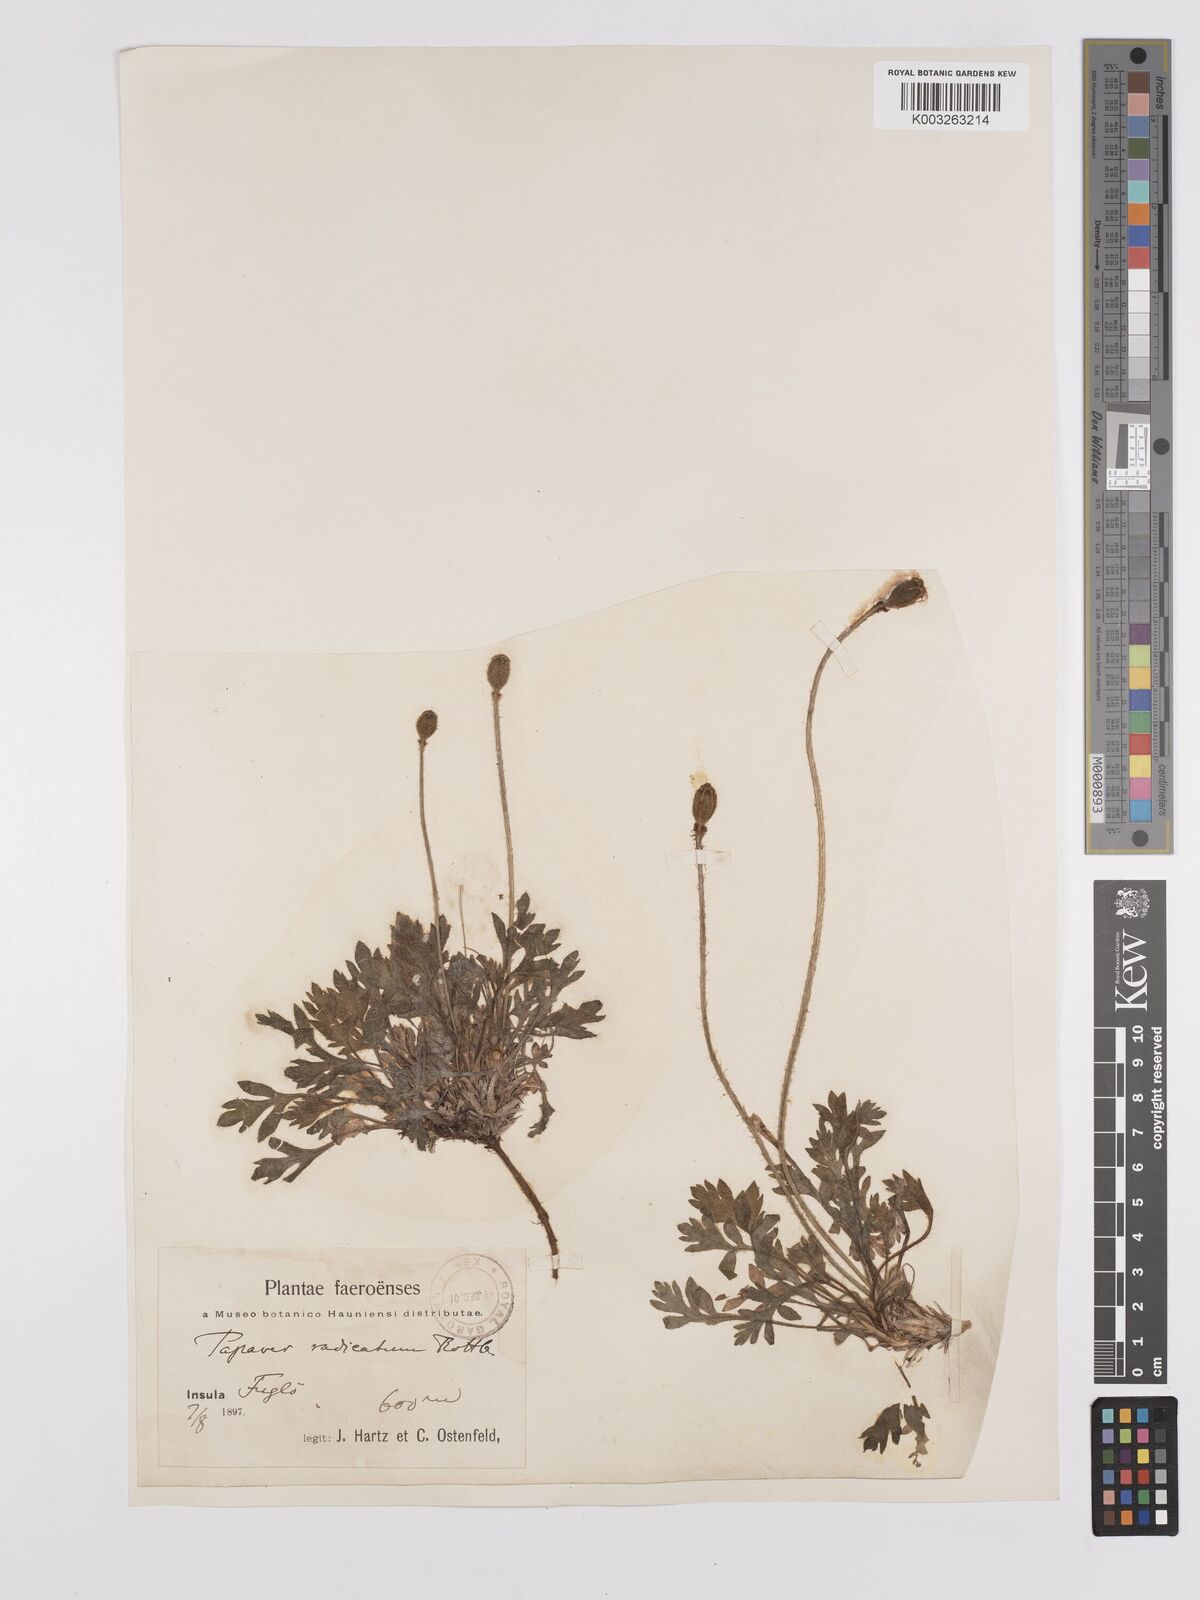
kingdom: Plantae
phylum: Tracheophyta
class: Magnoliopsida
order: Ranunculales
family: Papaveraceae
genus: Papaver
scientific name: Papaver radicatum
